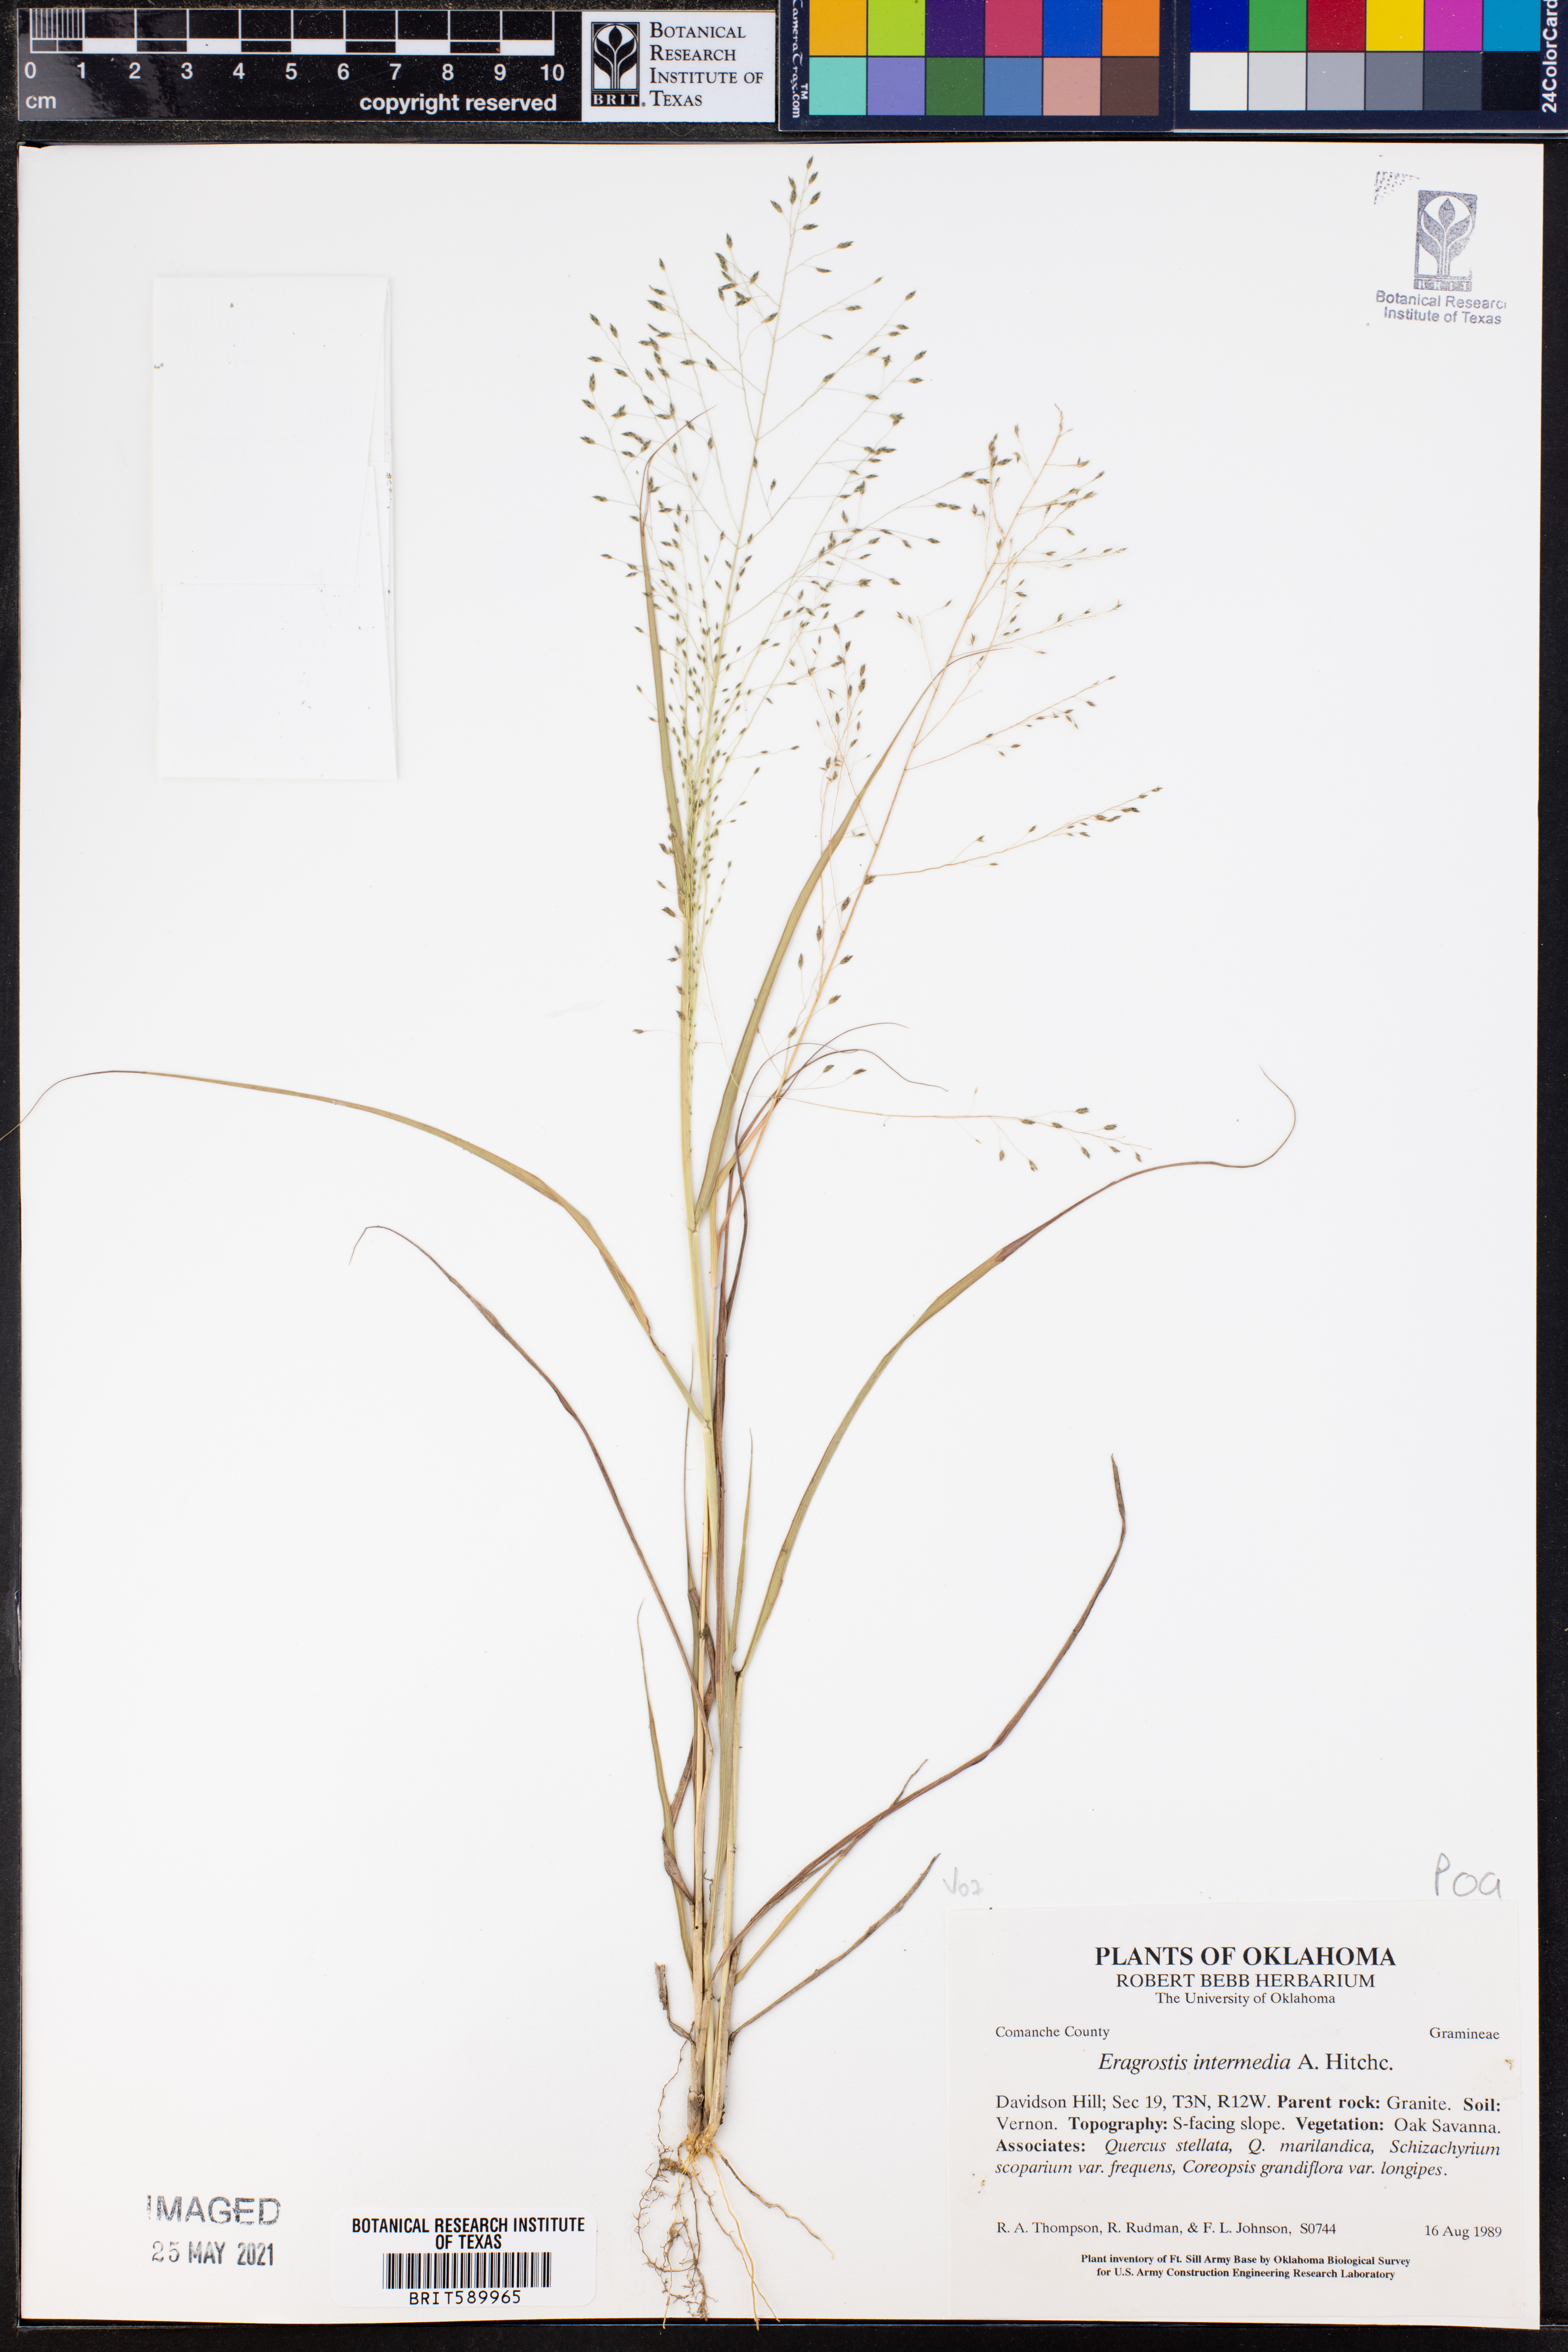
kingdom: Plantae
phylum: Tracheophyta
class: Liliopsida
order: Poales
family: Poaceae
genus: Eragrostis
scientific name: Eragrostis intermedia
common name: Plains love grass
